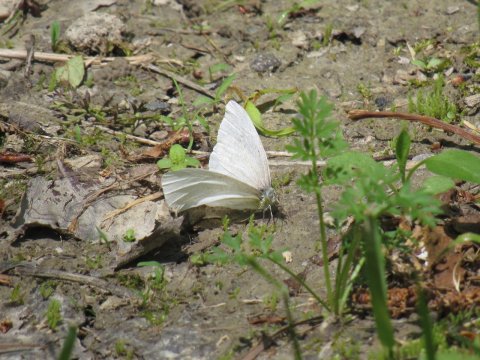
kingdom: Animalia
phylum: Arthropoda
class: Insecta
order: Lepidoptera
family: Pieridae
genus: Pieris
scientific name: Pieris virginiensis
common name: West Virginia White
